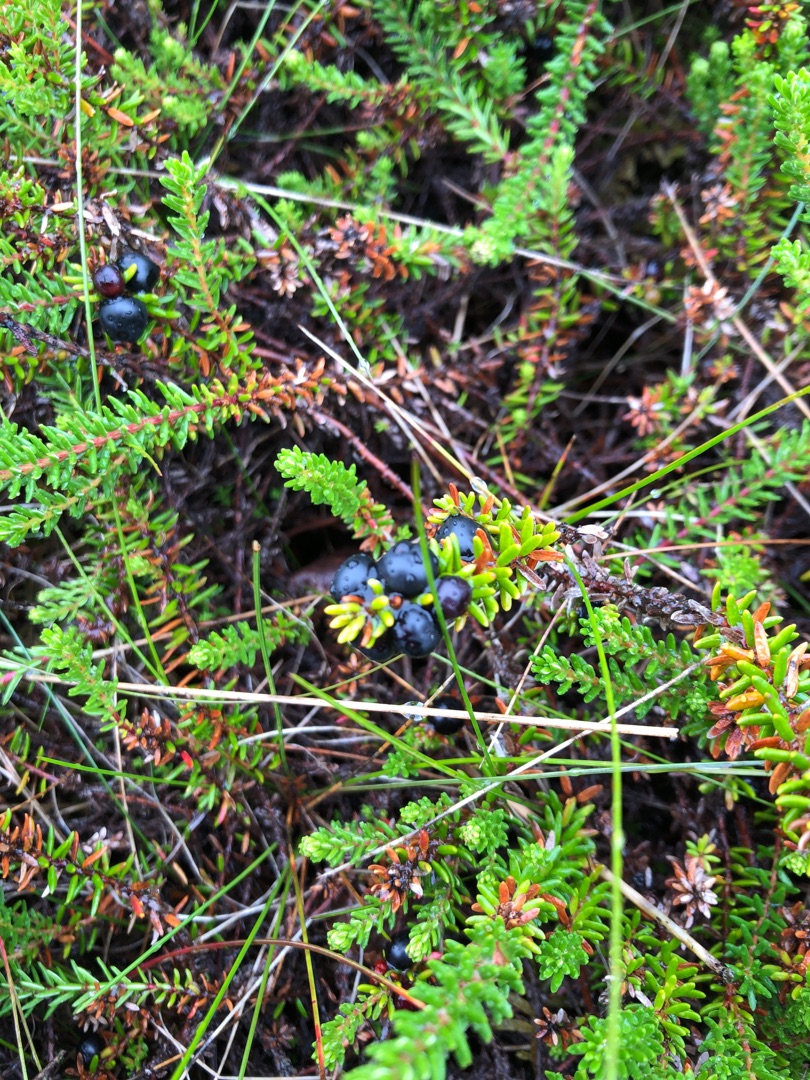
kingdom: Plantae
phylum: Tracheophyta
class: Magnoliopsida
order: Ericales
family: Ericaceae
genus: Empetrum
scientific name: Empetrum nigrum
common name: Revling
